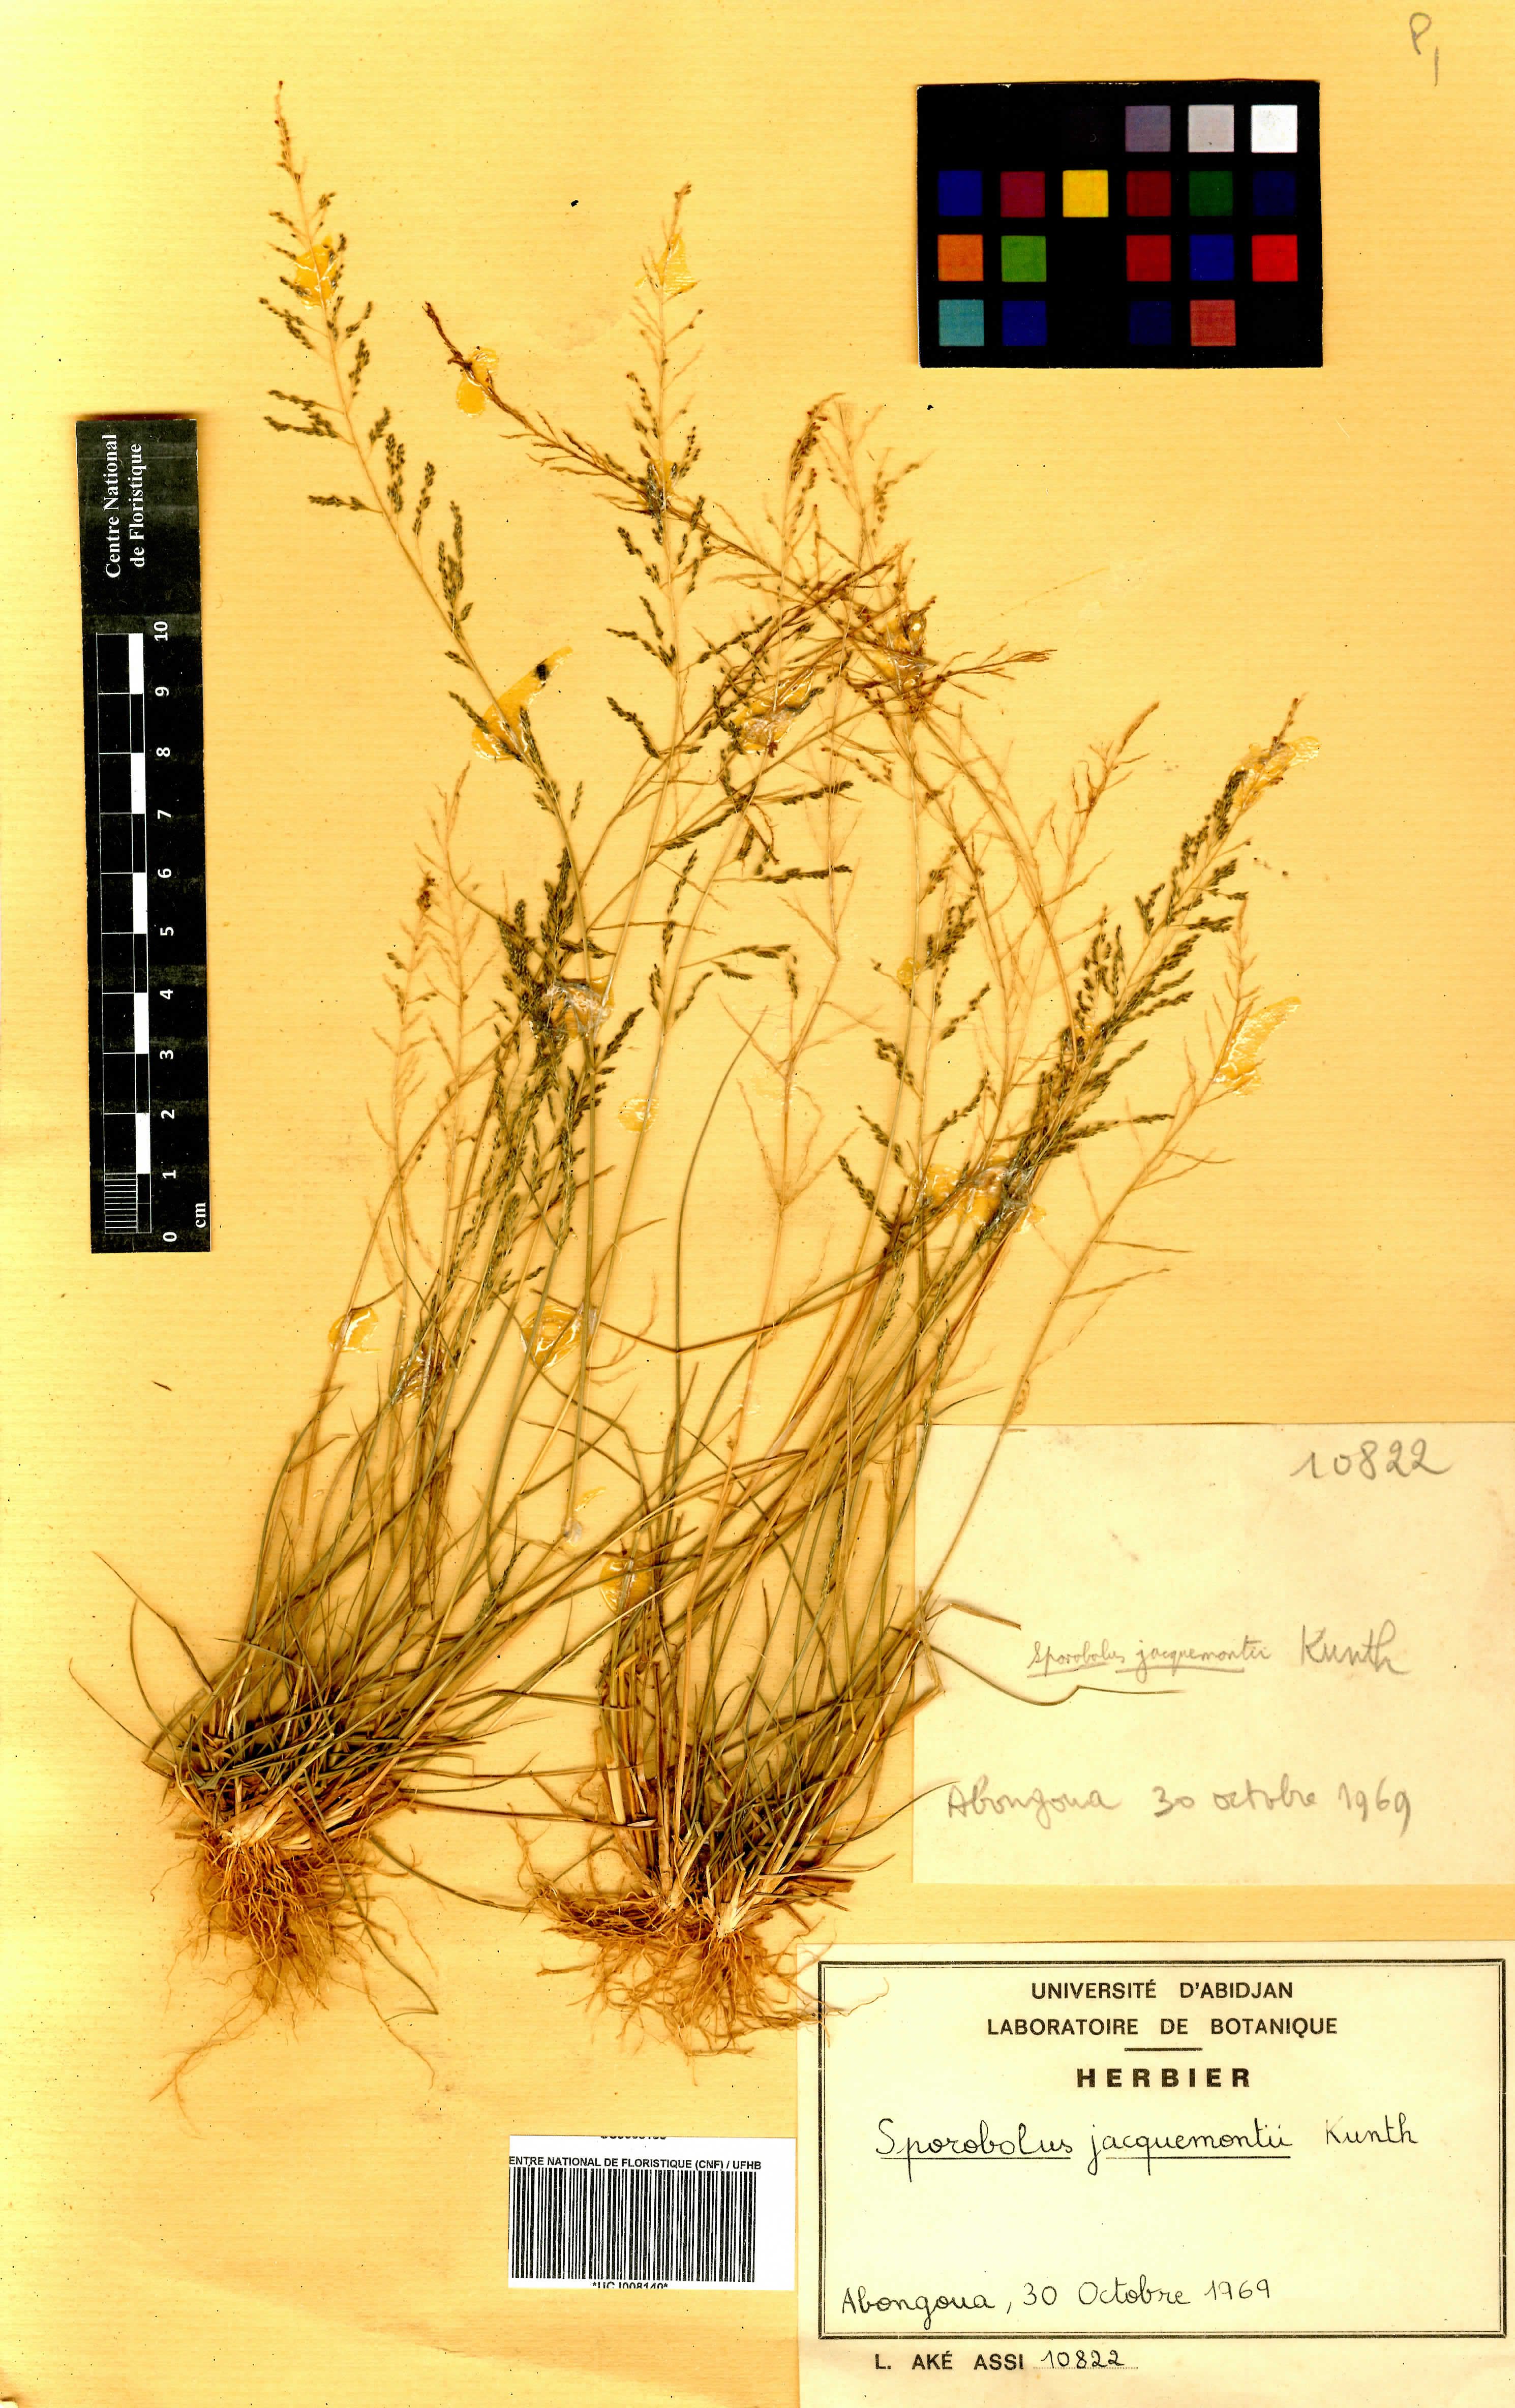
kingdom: Plantae
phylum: Tracheophyta
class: Liliopsida
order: Poales
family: Poaceae
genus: Sporobolus
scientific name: Sporobolus pyramidalis
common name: West indian dropseed
